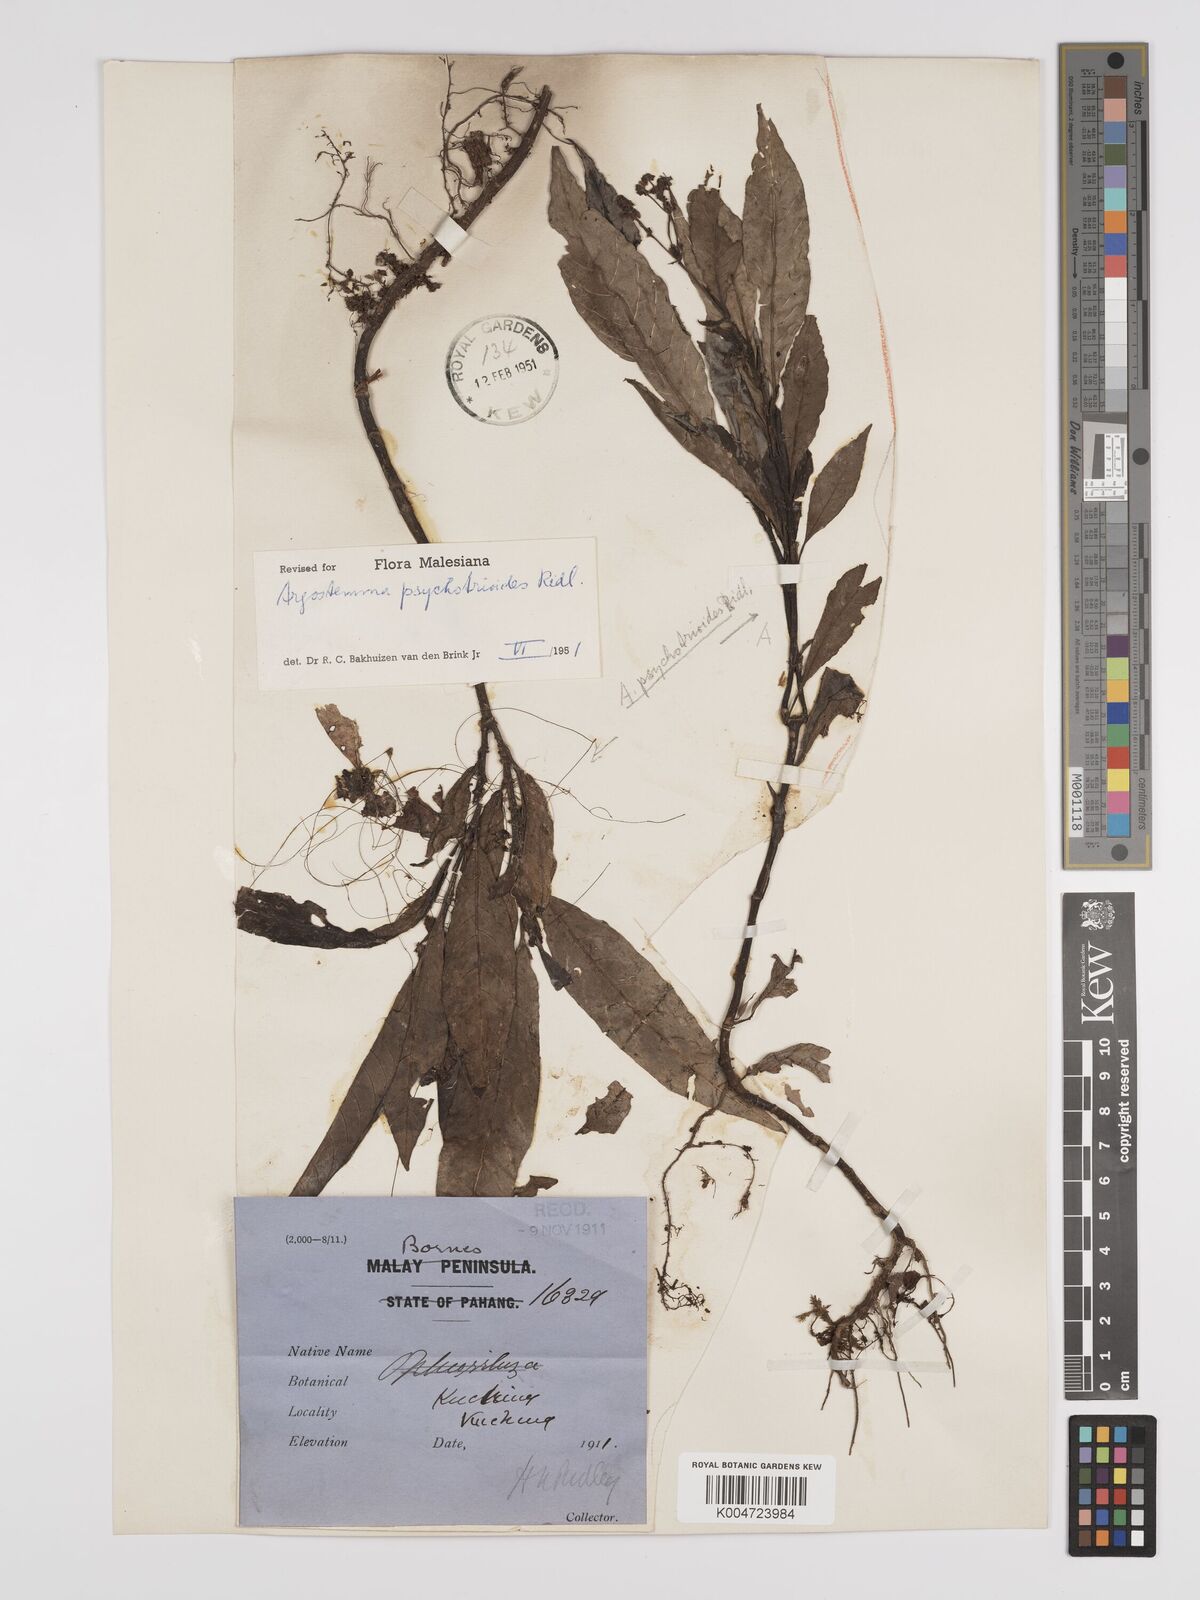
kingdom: Plantae
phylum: Tracheophyta
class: Magnoliopsida
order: Gentianales
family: Rubiaceae
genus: Argostemma
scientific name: Argostemma psychotrioides
